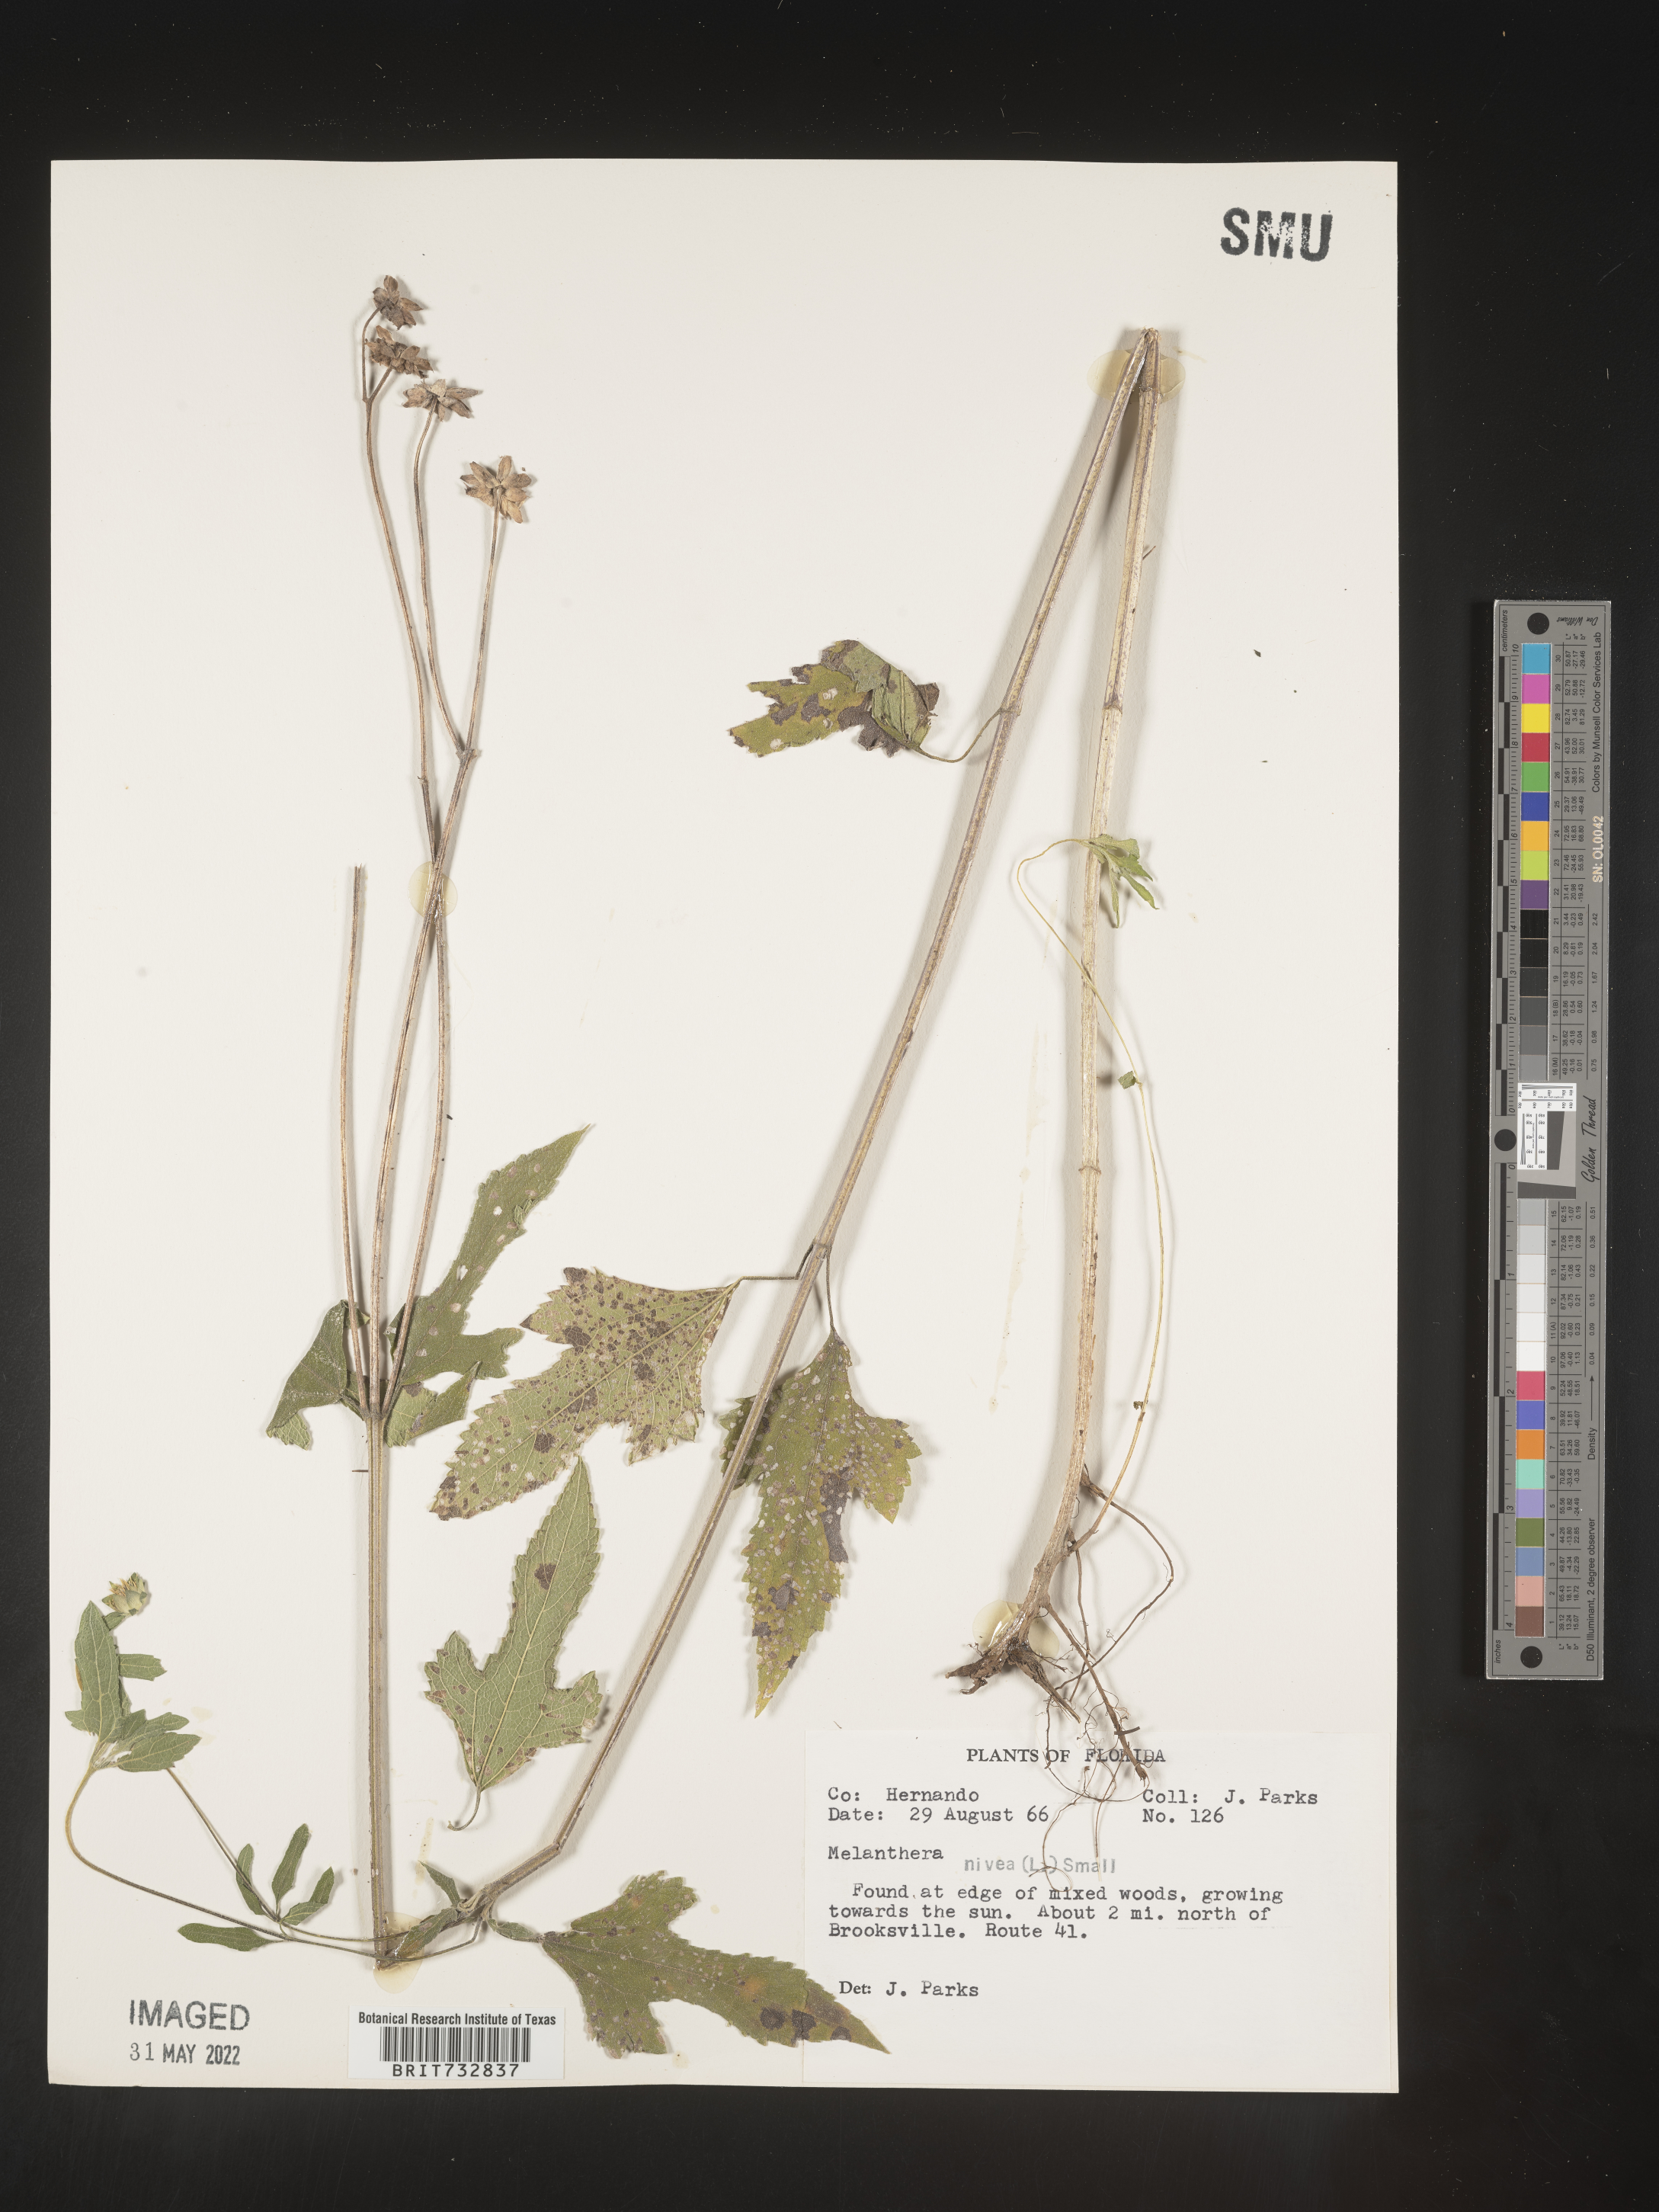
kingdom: Plantae
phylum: Tracheophyta
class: Magnoliopsida
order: Asterales
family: Asteraceae
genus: Melanthera
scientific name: Melanthera nivea
